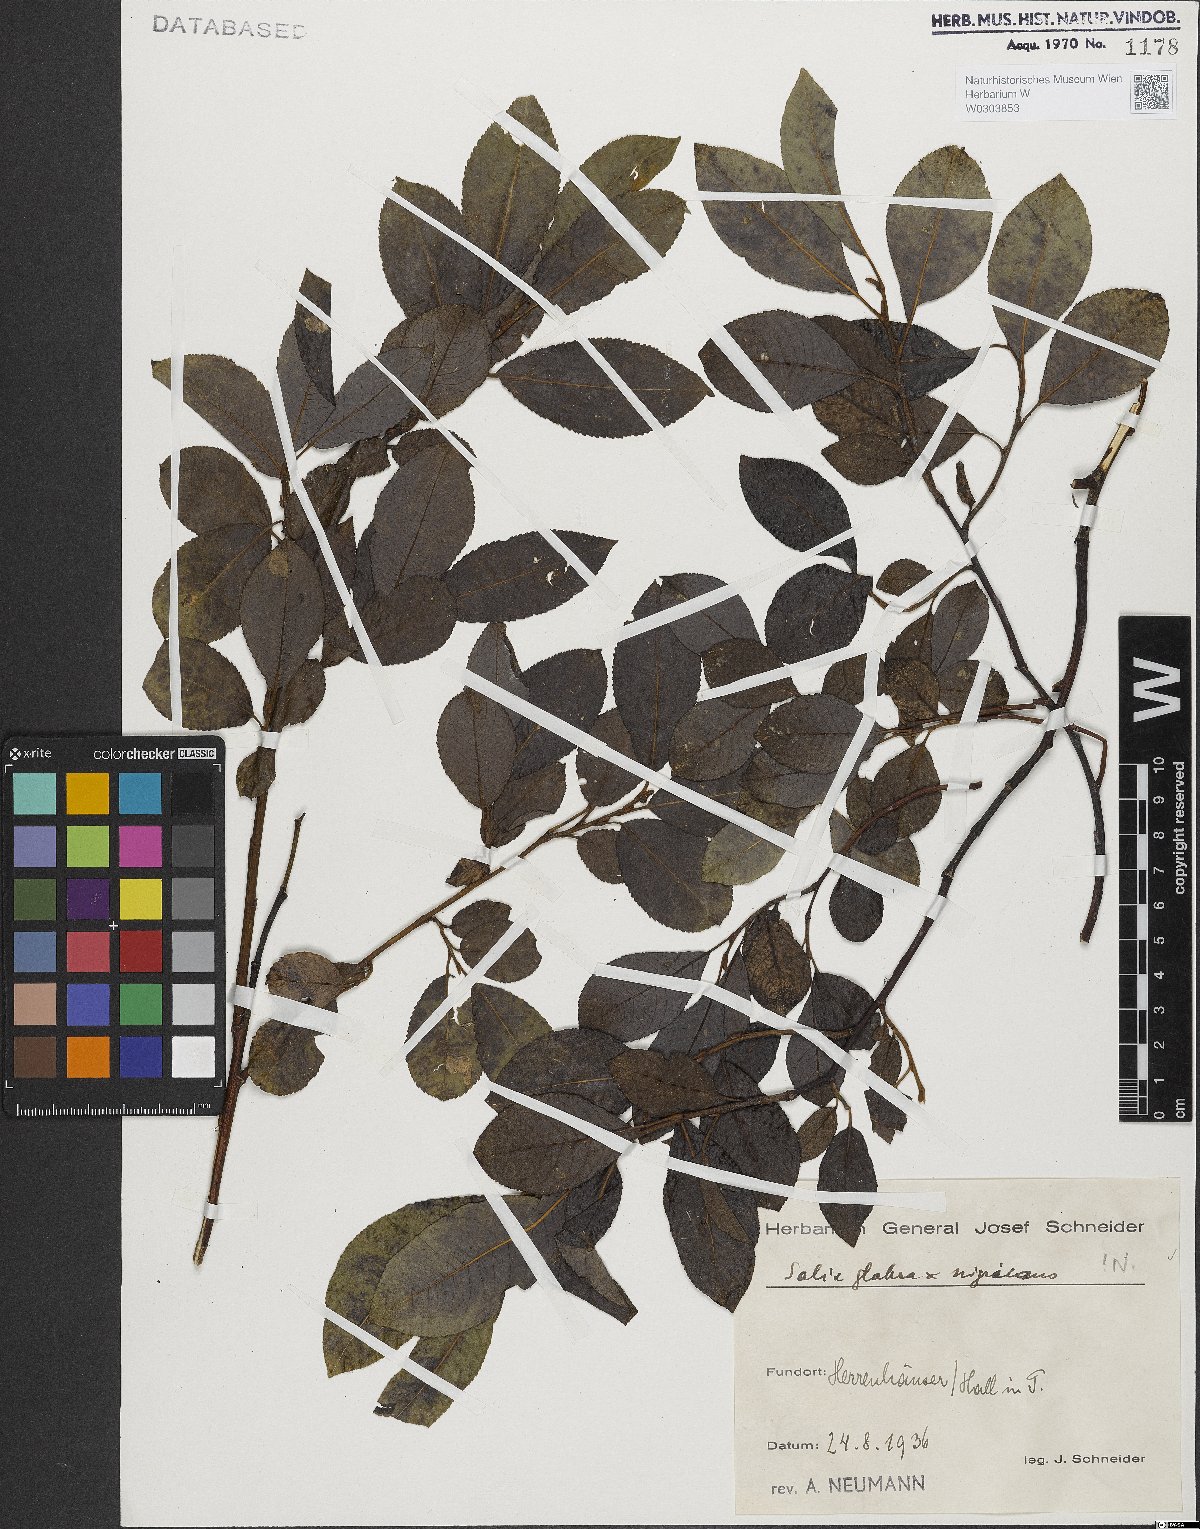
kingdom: Plantae
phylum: Tracheophyta
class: Magnoliopsida
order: Malpighiales
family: Salicaceae
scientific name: Salicaceae
